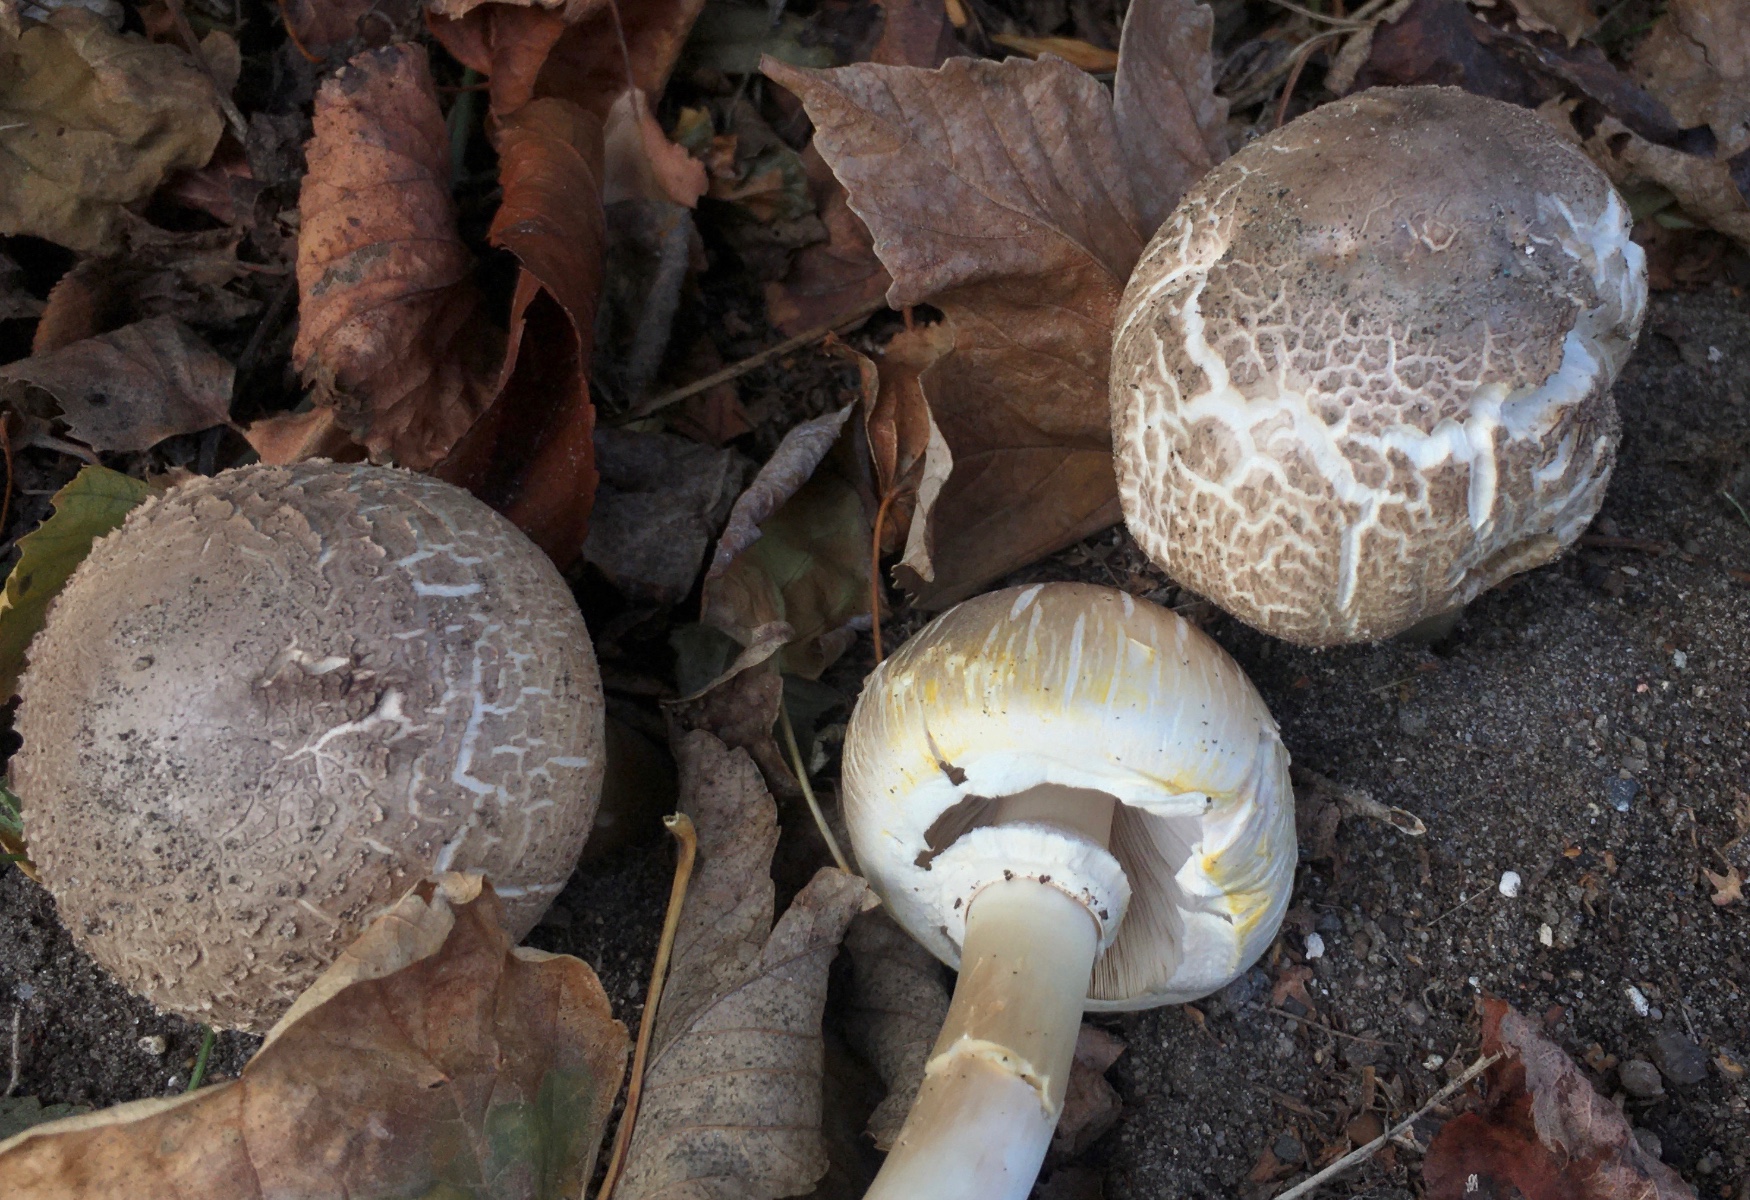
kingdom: Fungi
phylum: Basidiomycota
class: Agaricomycetes
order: Agaricales
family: Agaricaceae
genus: Agaricus
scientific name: Agaricus xanthodermus
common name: karbol-champignon
